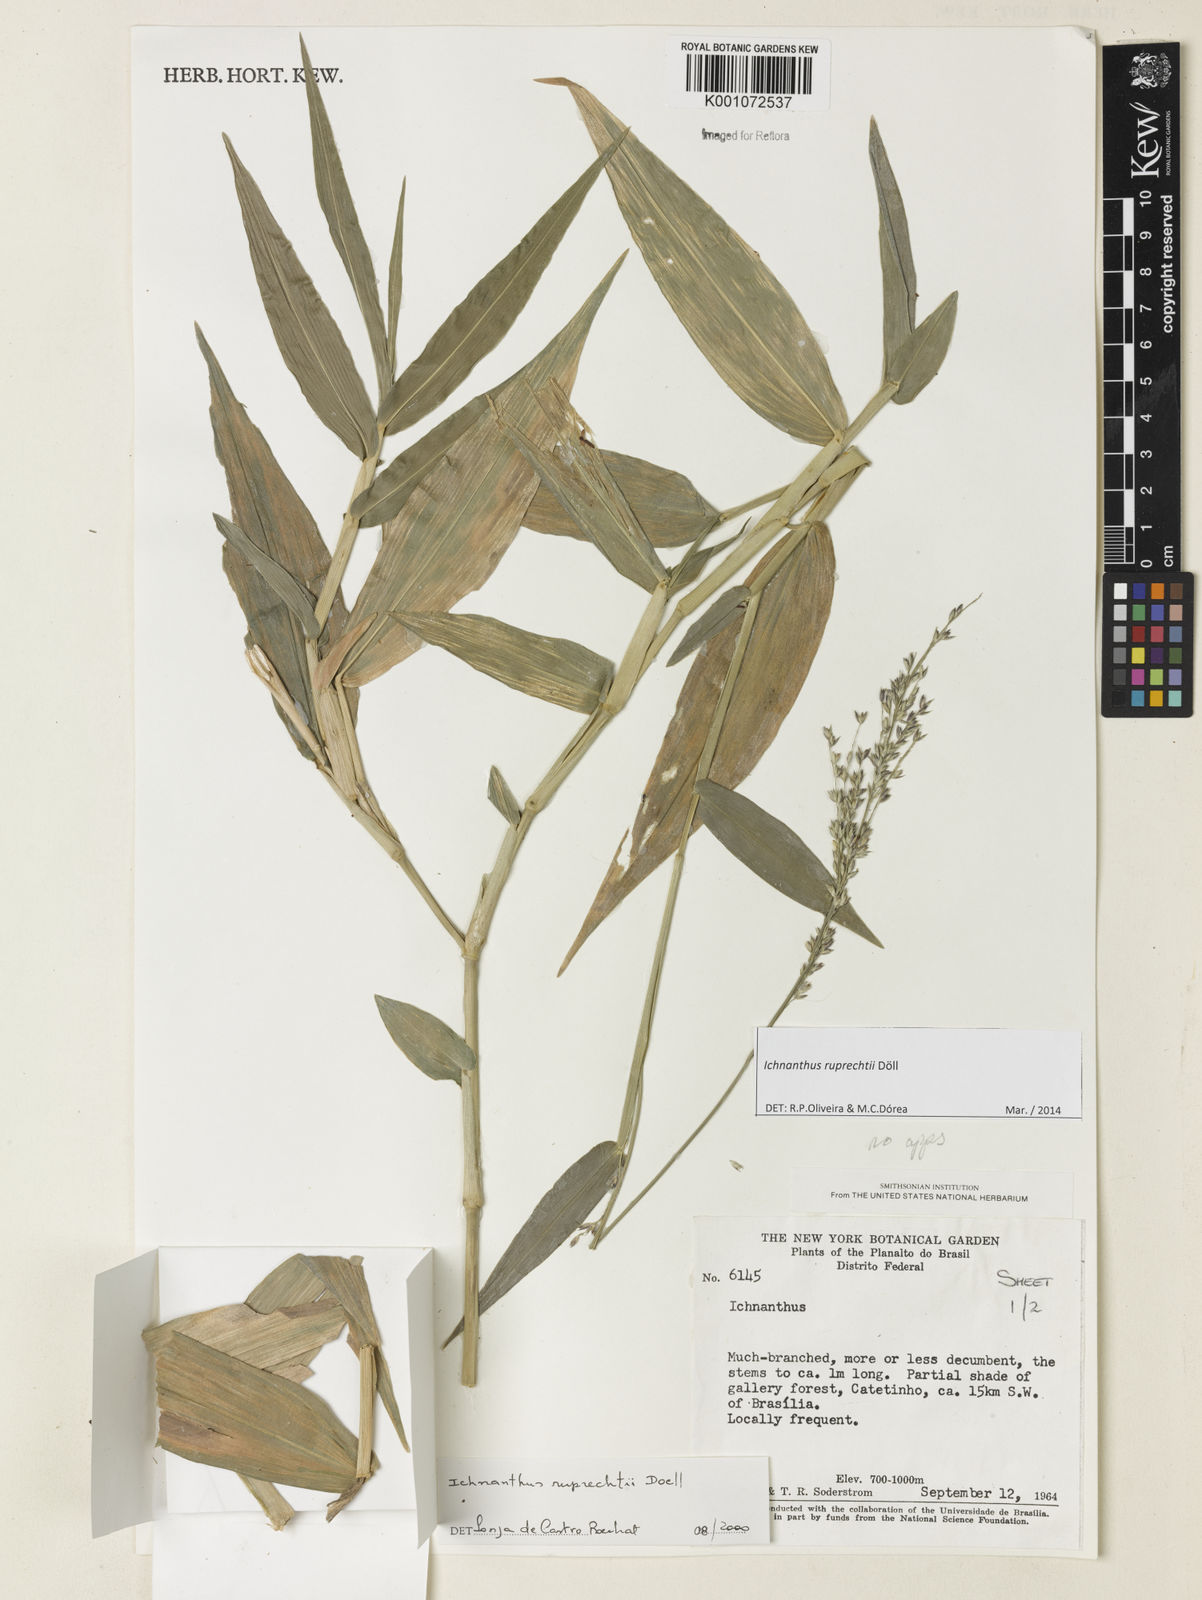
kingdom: Plantae
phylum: Tracheophyta
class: Liliopsida
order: Poales
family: Poaceae
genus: Ichnanthus
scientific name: Ichnanthus
